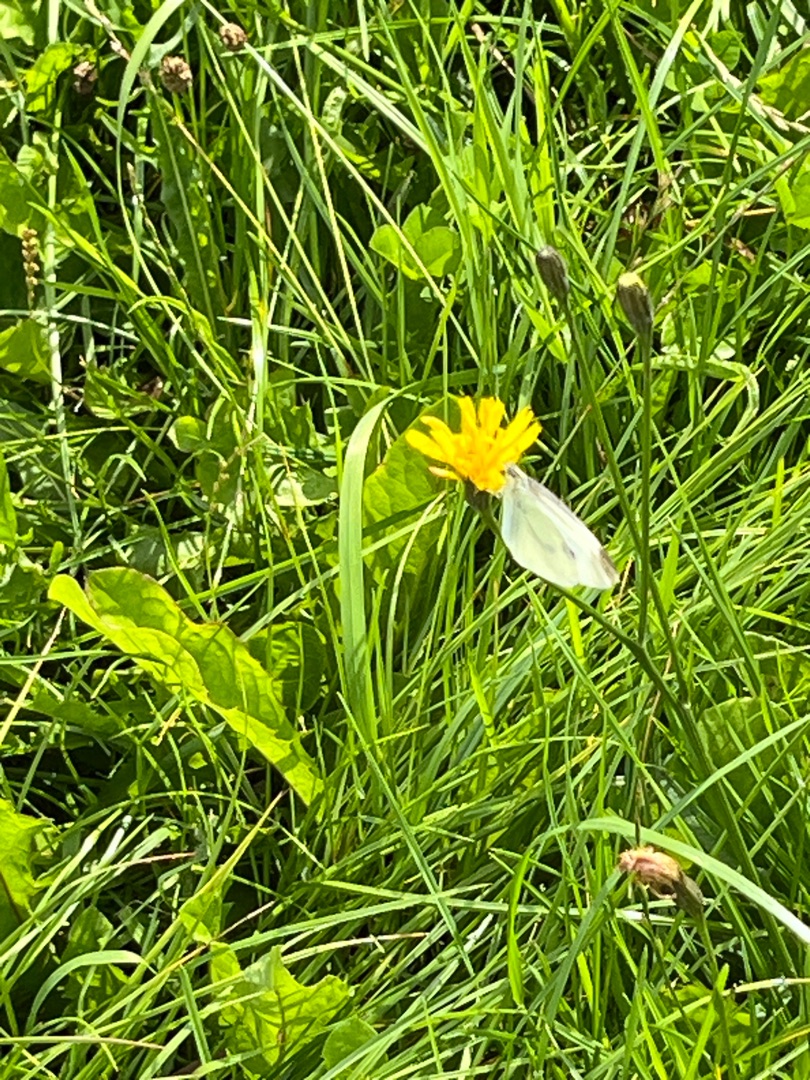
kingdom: Animalia
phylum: Arthropoda
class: Insecta
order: Lepidoptera
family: Pieridae
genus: Pieris
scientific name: Pieris rapae
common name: Lille kålsommerfugl
